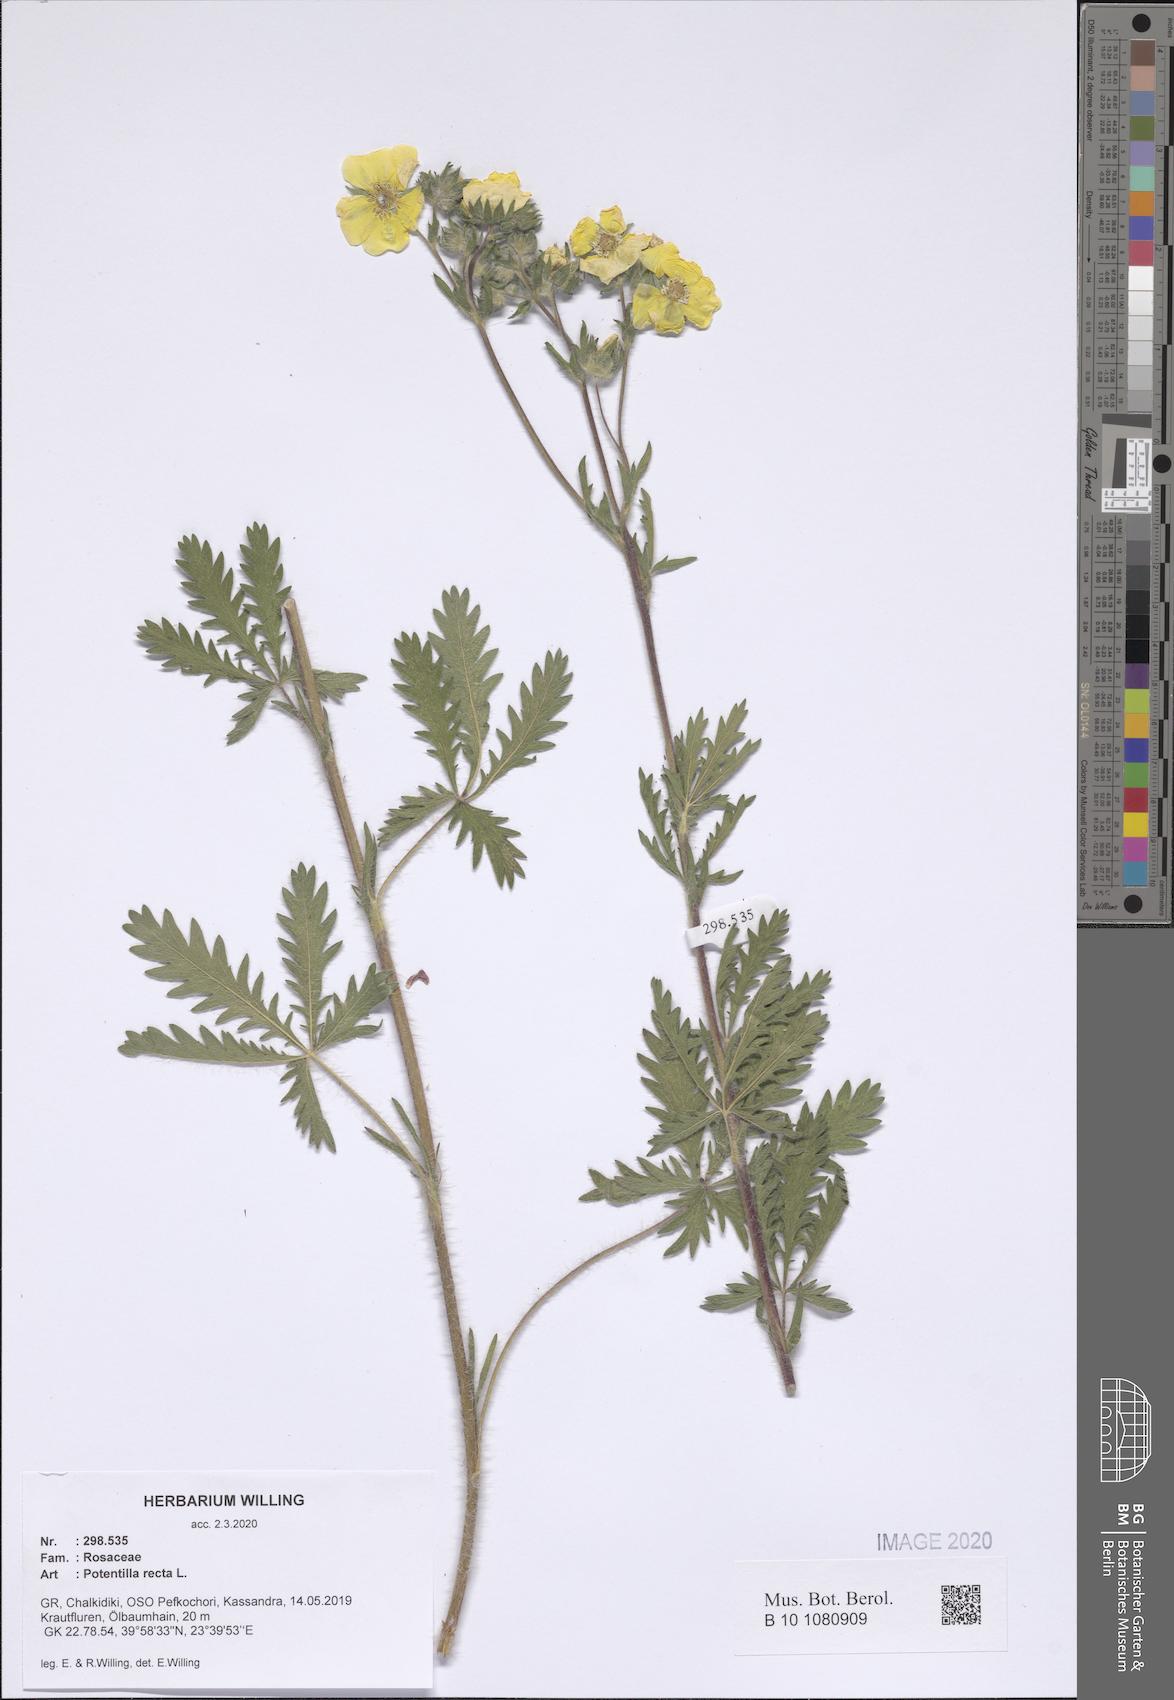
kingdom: Plantae
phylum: Tracheophyta
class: Magnoliopsida
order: Rosales
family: Rosaceae
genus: Potentilla
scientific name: Potentilla recta
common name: Sulphur cinquefoil
